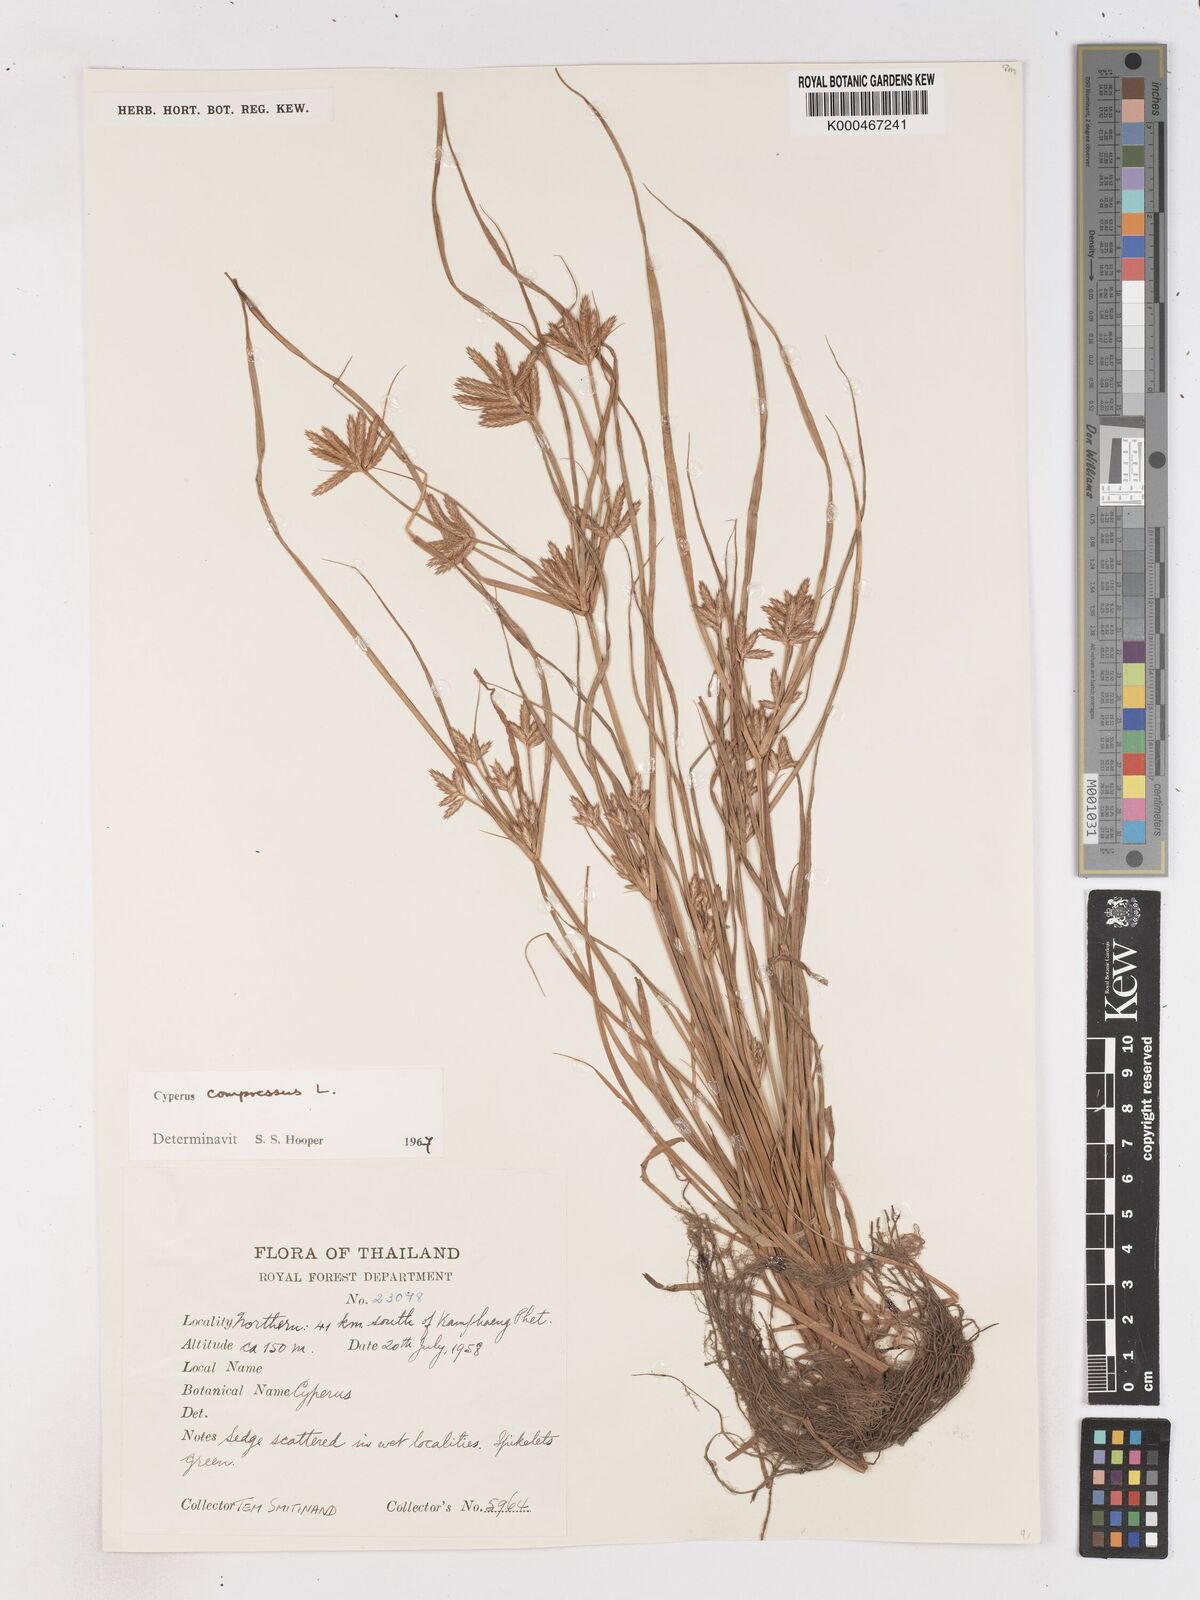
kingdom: Plantae
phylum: Tracheophyta
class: Liliopsida
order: Poales
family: Cyperaceae
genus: Cyperus
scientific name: Cyperus compressus
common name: Poorland flatsedge
